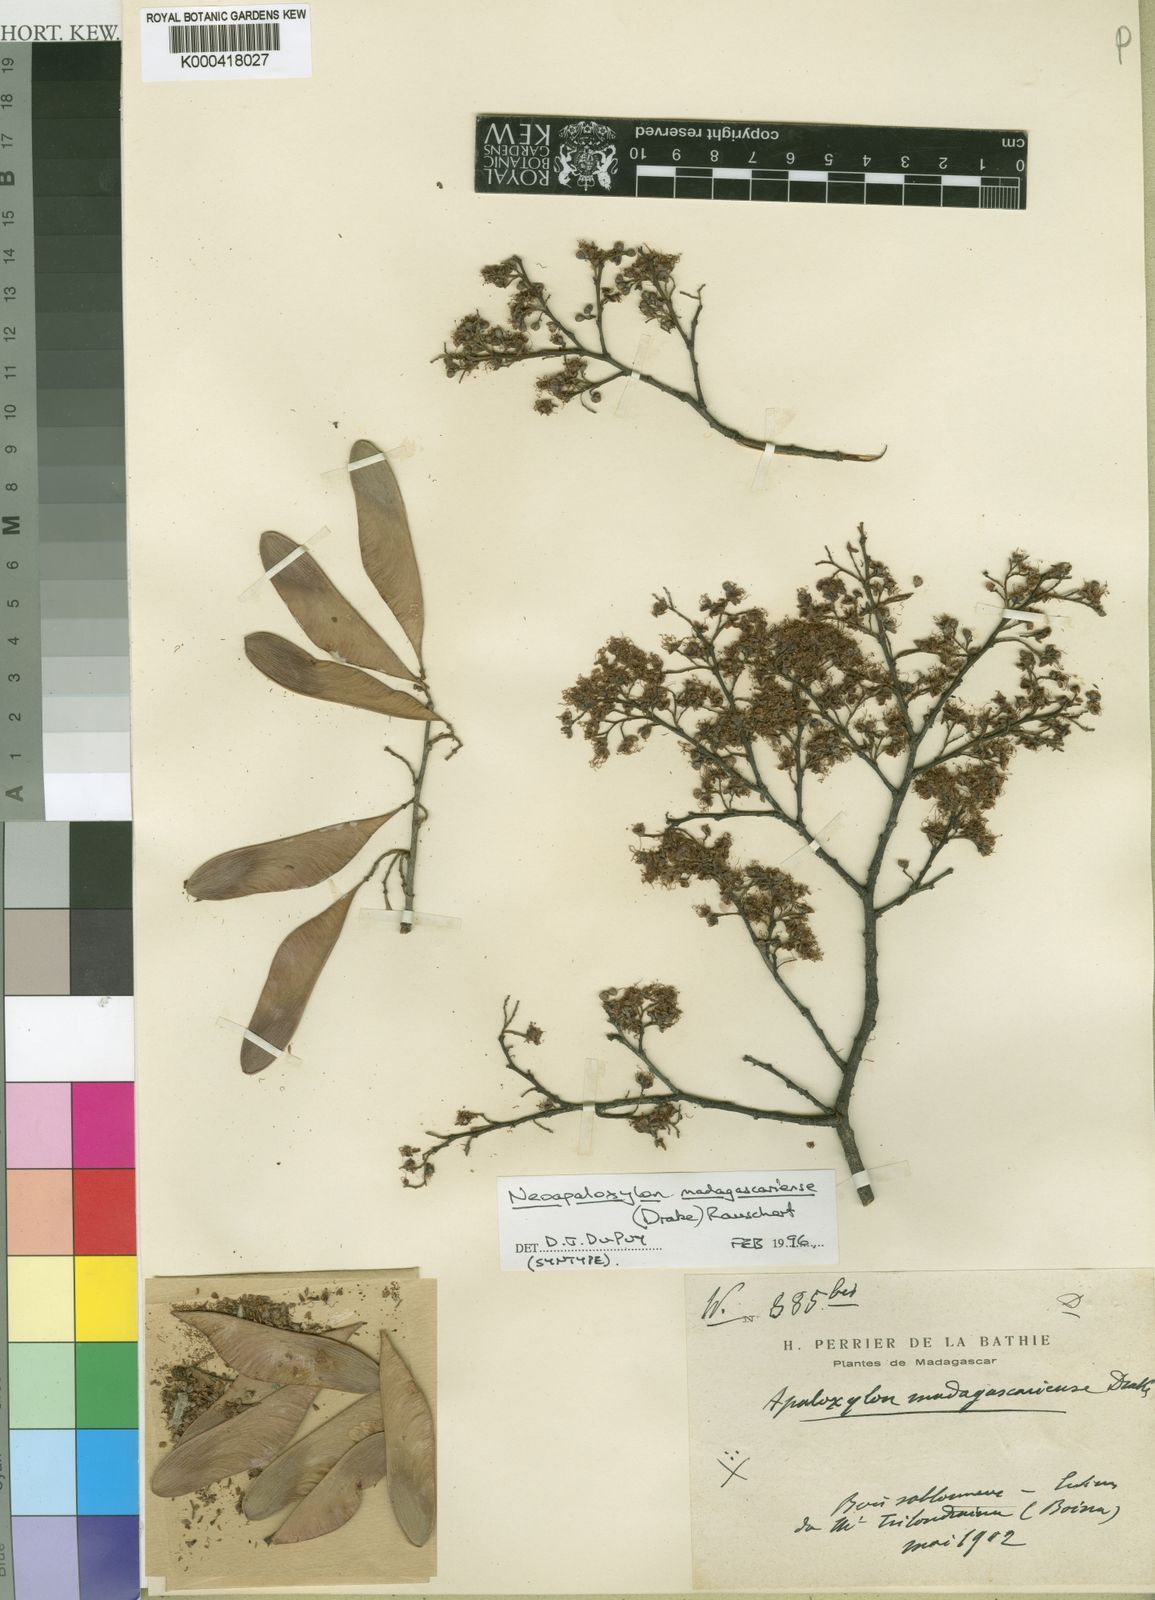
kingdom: Plantae
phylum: Tracheophyta
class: Magnoliopsida
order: Fabales
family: Fabaceae
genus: Neoapaloxylon
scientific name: Neoapaloxylon madagascariense
